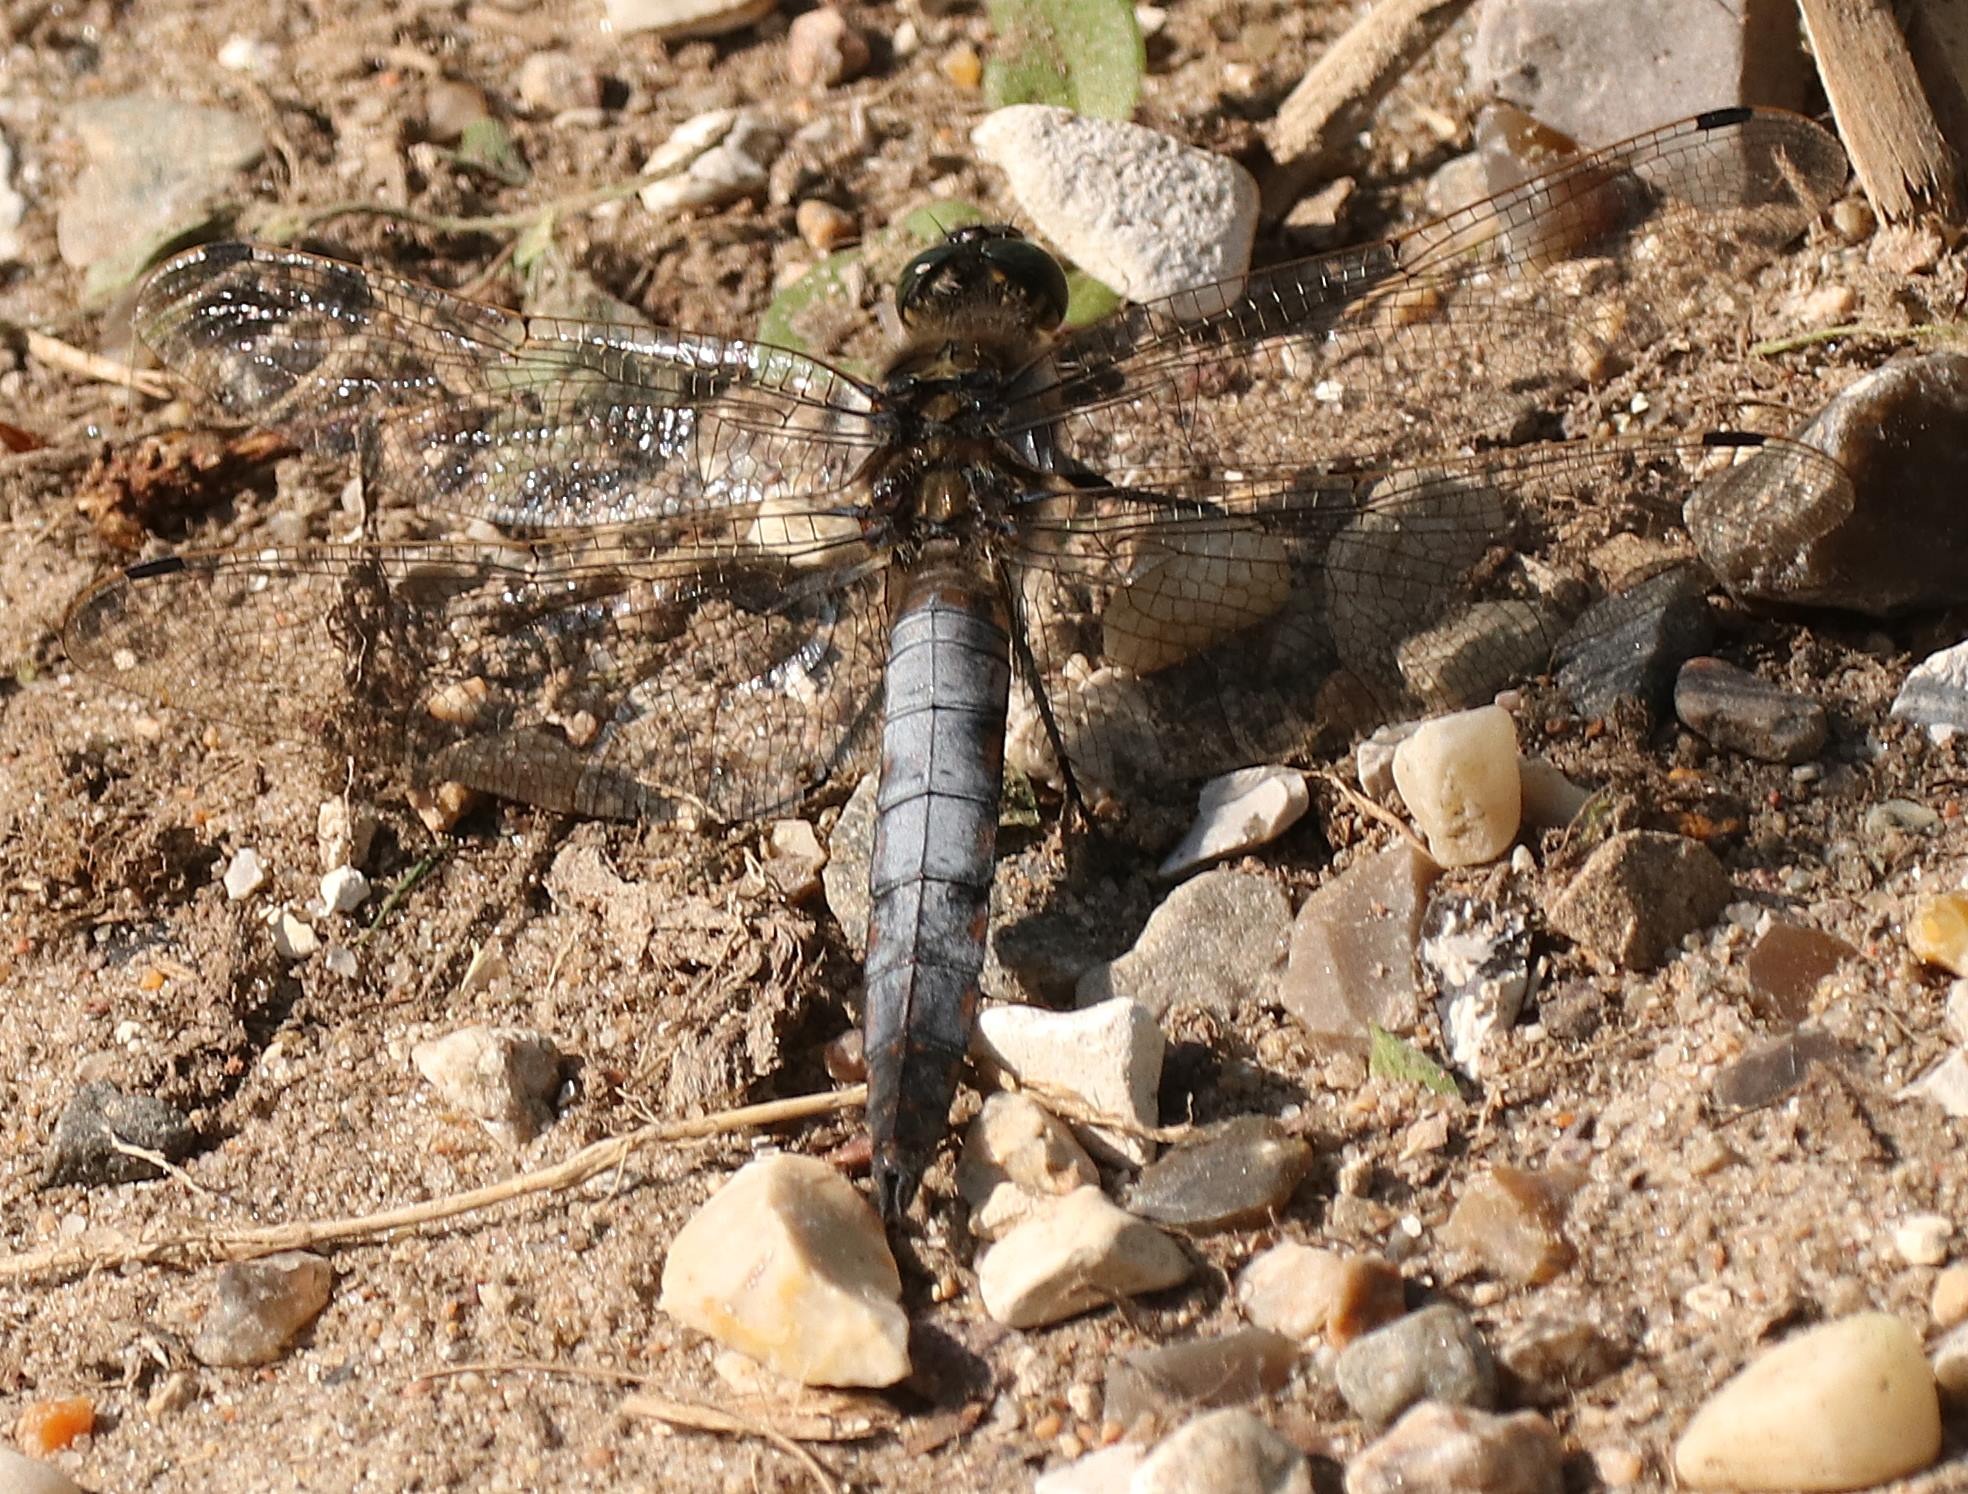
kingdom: Animalia
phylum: Arthropoda
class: Insecta
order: Odonata
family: Libellulidae
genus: Orthetrum
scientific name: Orthetrum cancellatum
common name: Stor blåpil
